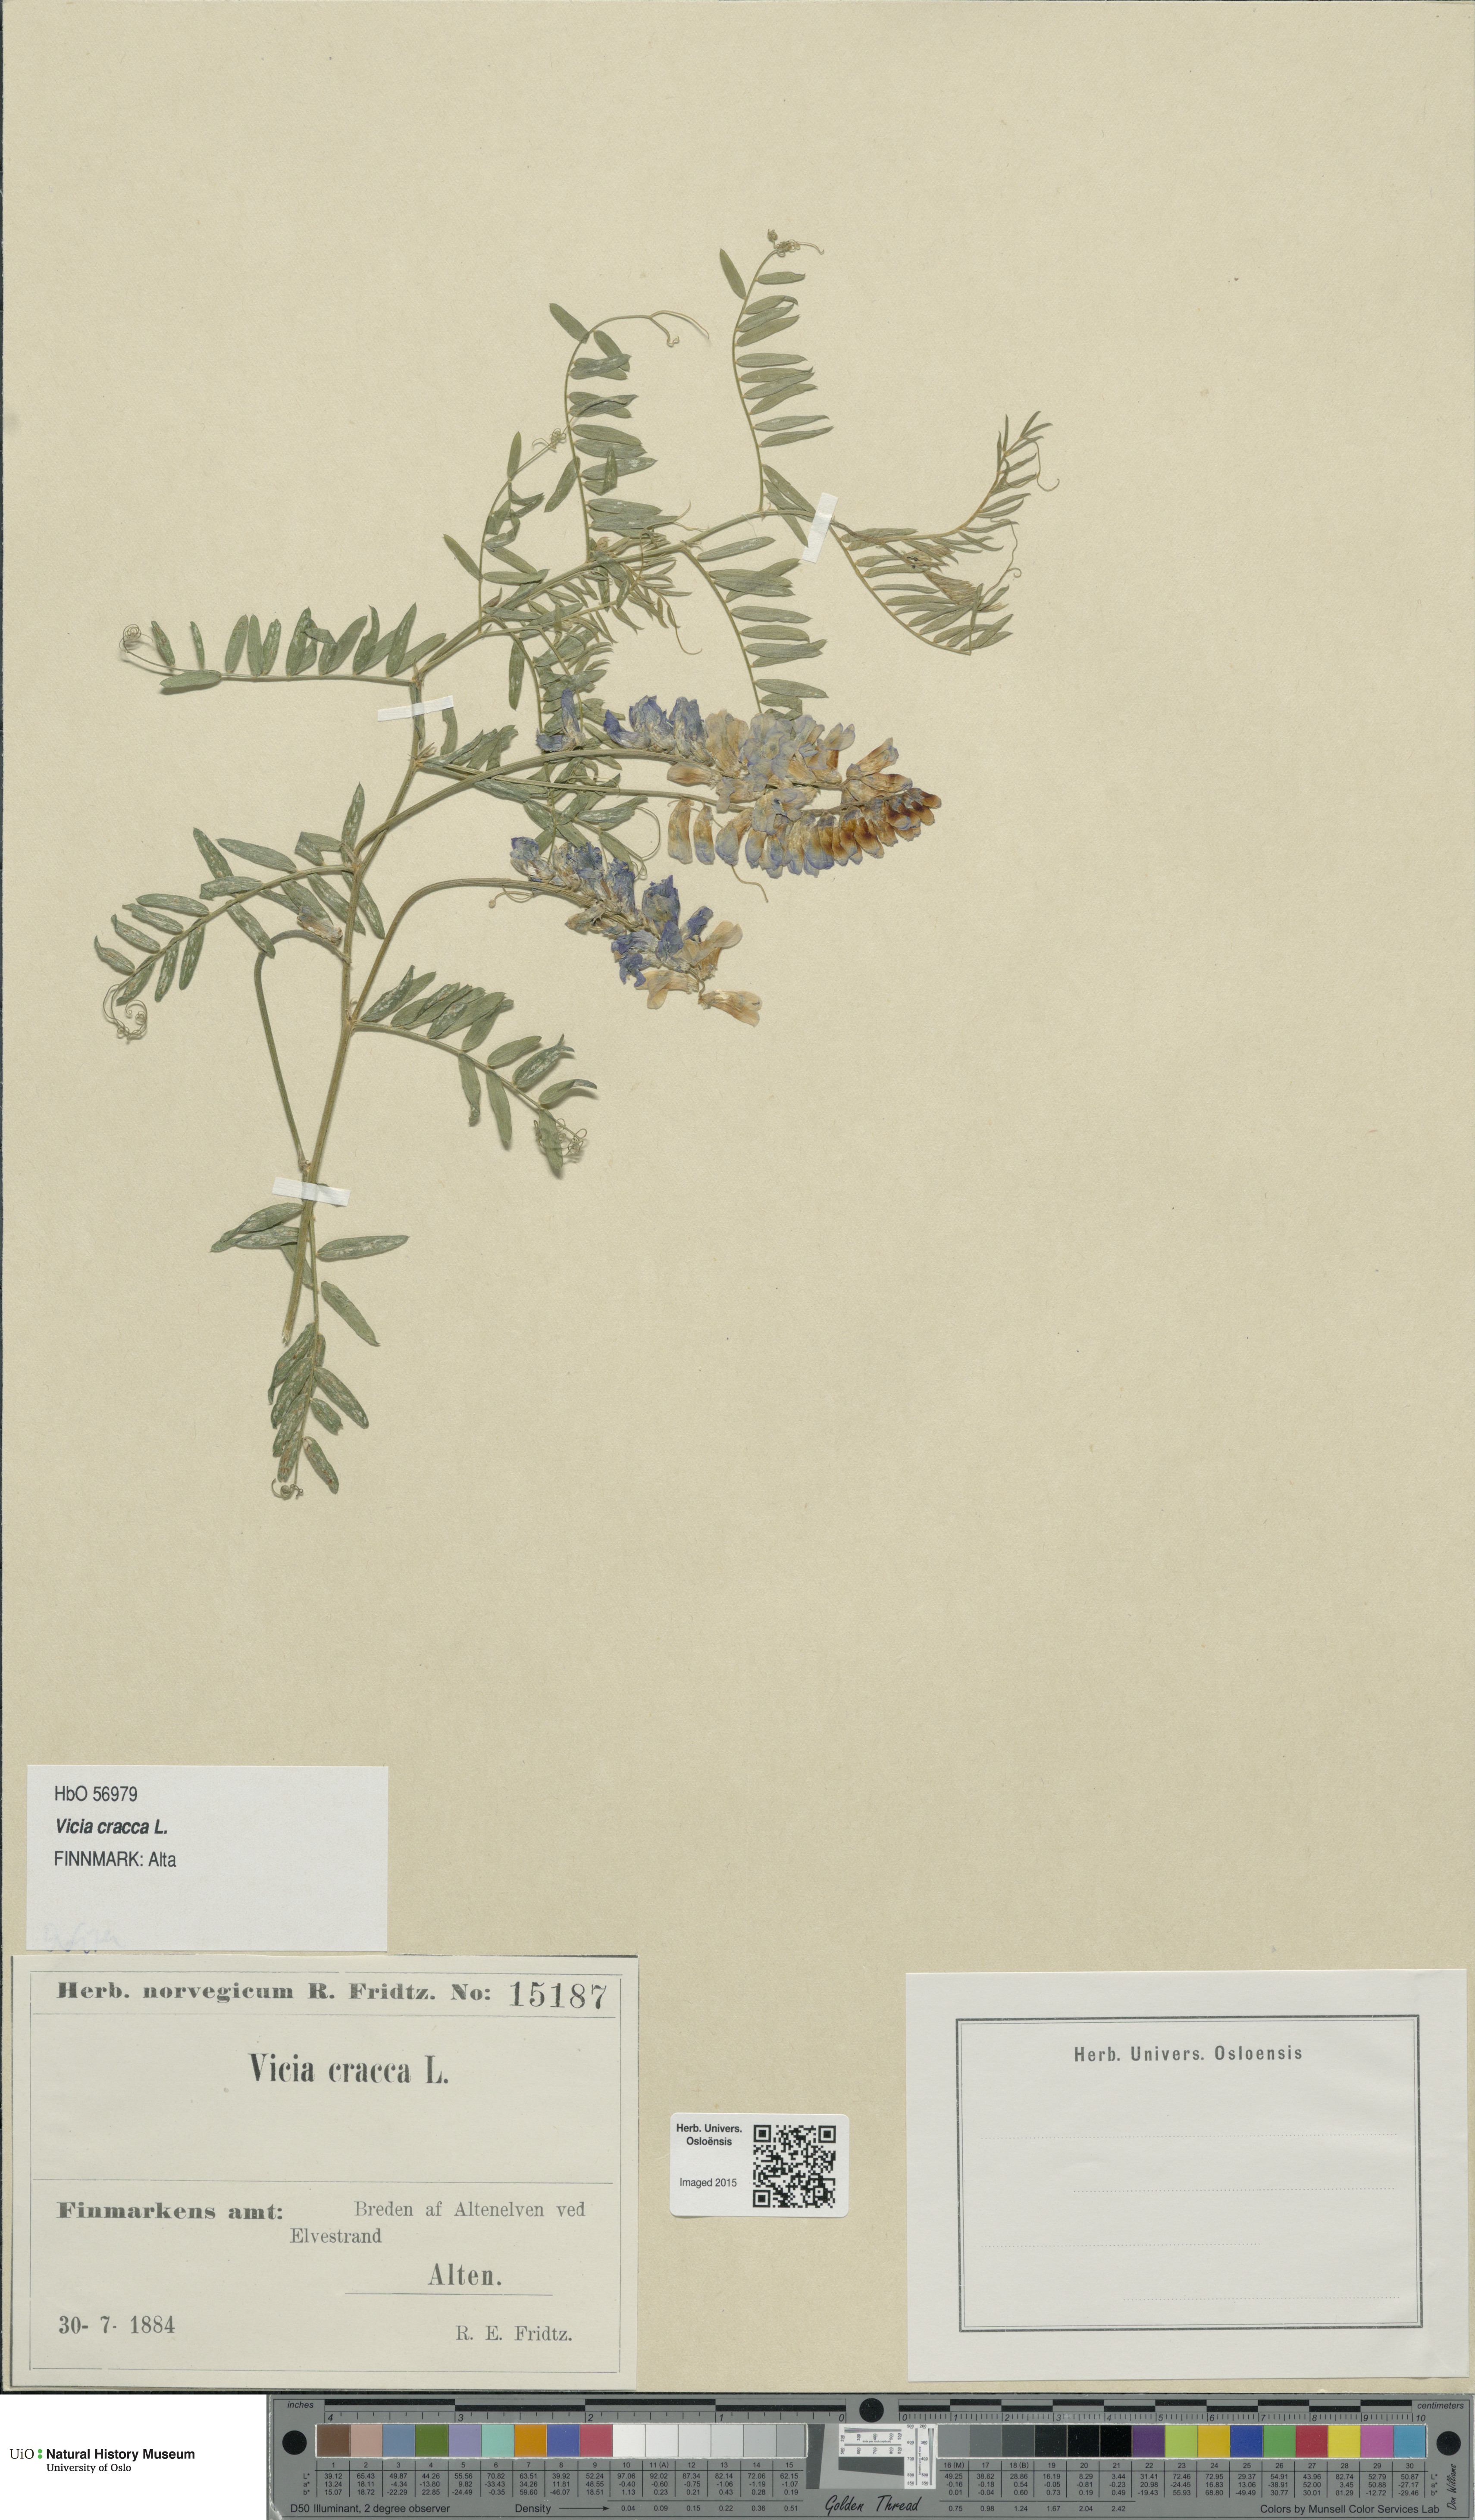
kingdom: Plantae
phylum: Tracheophyta
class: Magnoliopsida
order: Fabales
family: Fabaceae
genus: Vicia
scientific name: Vicia cracca
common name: Bird vetch
